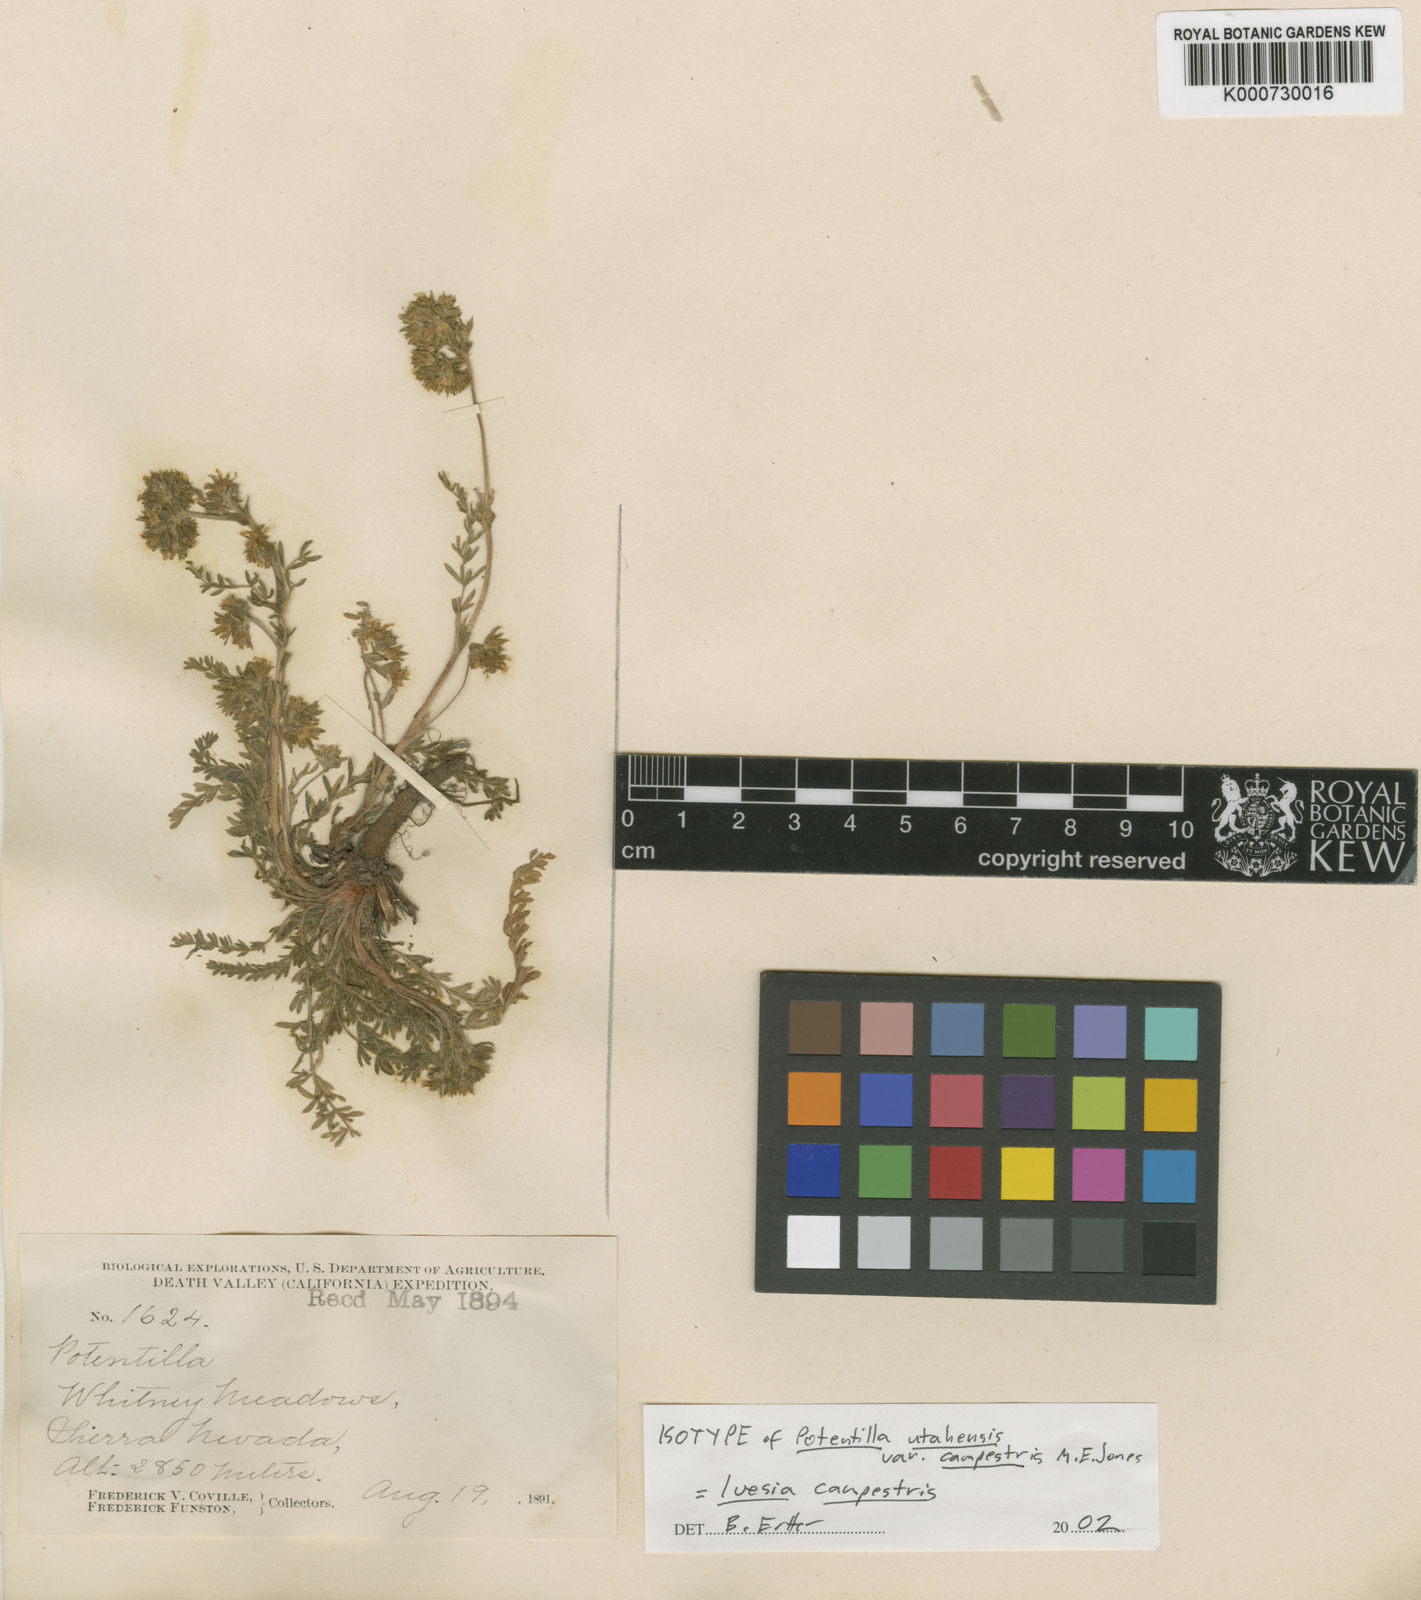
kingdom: Plantae
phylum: Tracheophyta
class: Magnoliopsida
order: Rosales
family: Rosaceae
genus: Potentilla
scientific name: Potentilla campestris
